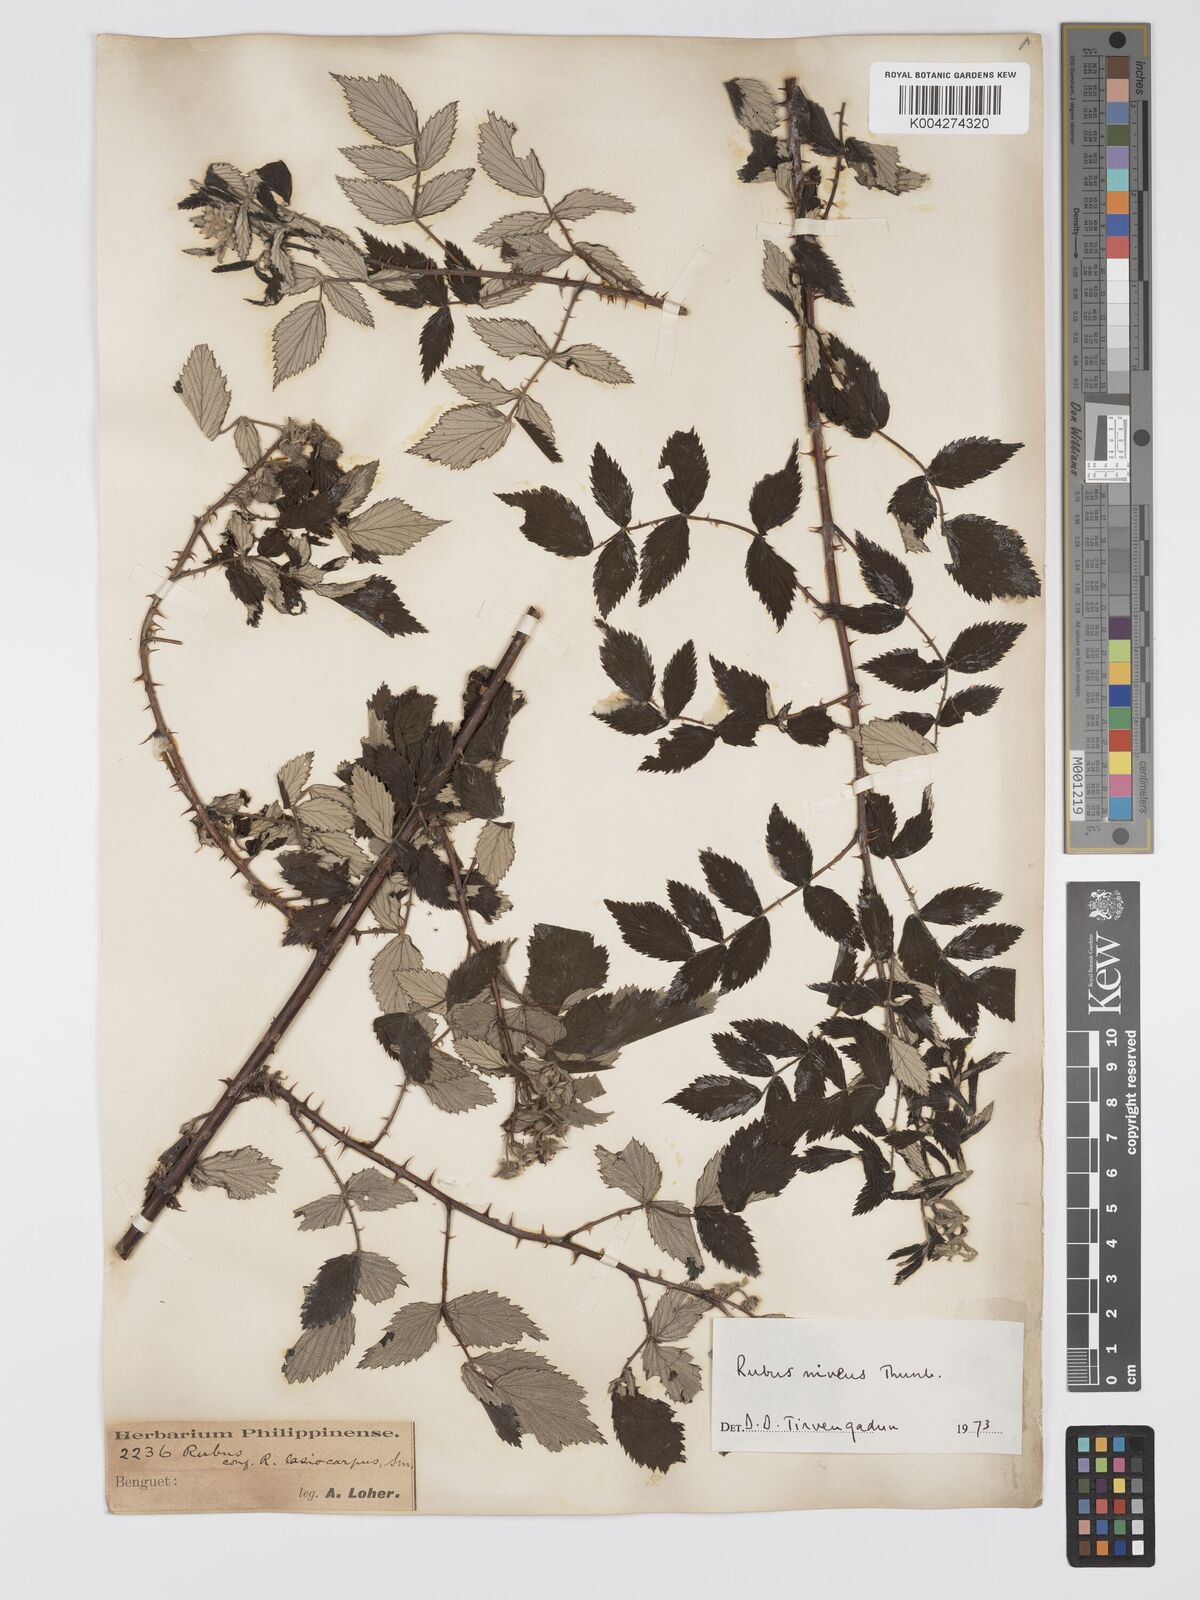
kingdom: Plantae
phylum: Tracheophyta
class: Magnoliopsida
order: Rosales
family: Rosaceae
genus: Rubus
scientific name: Rubus
